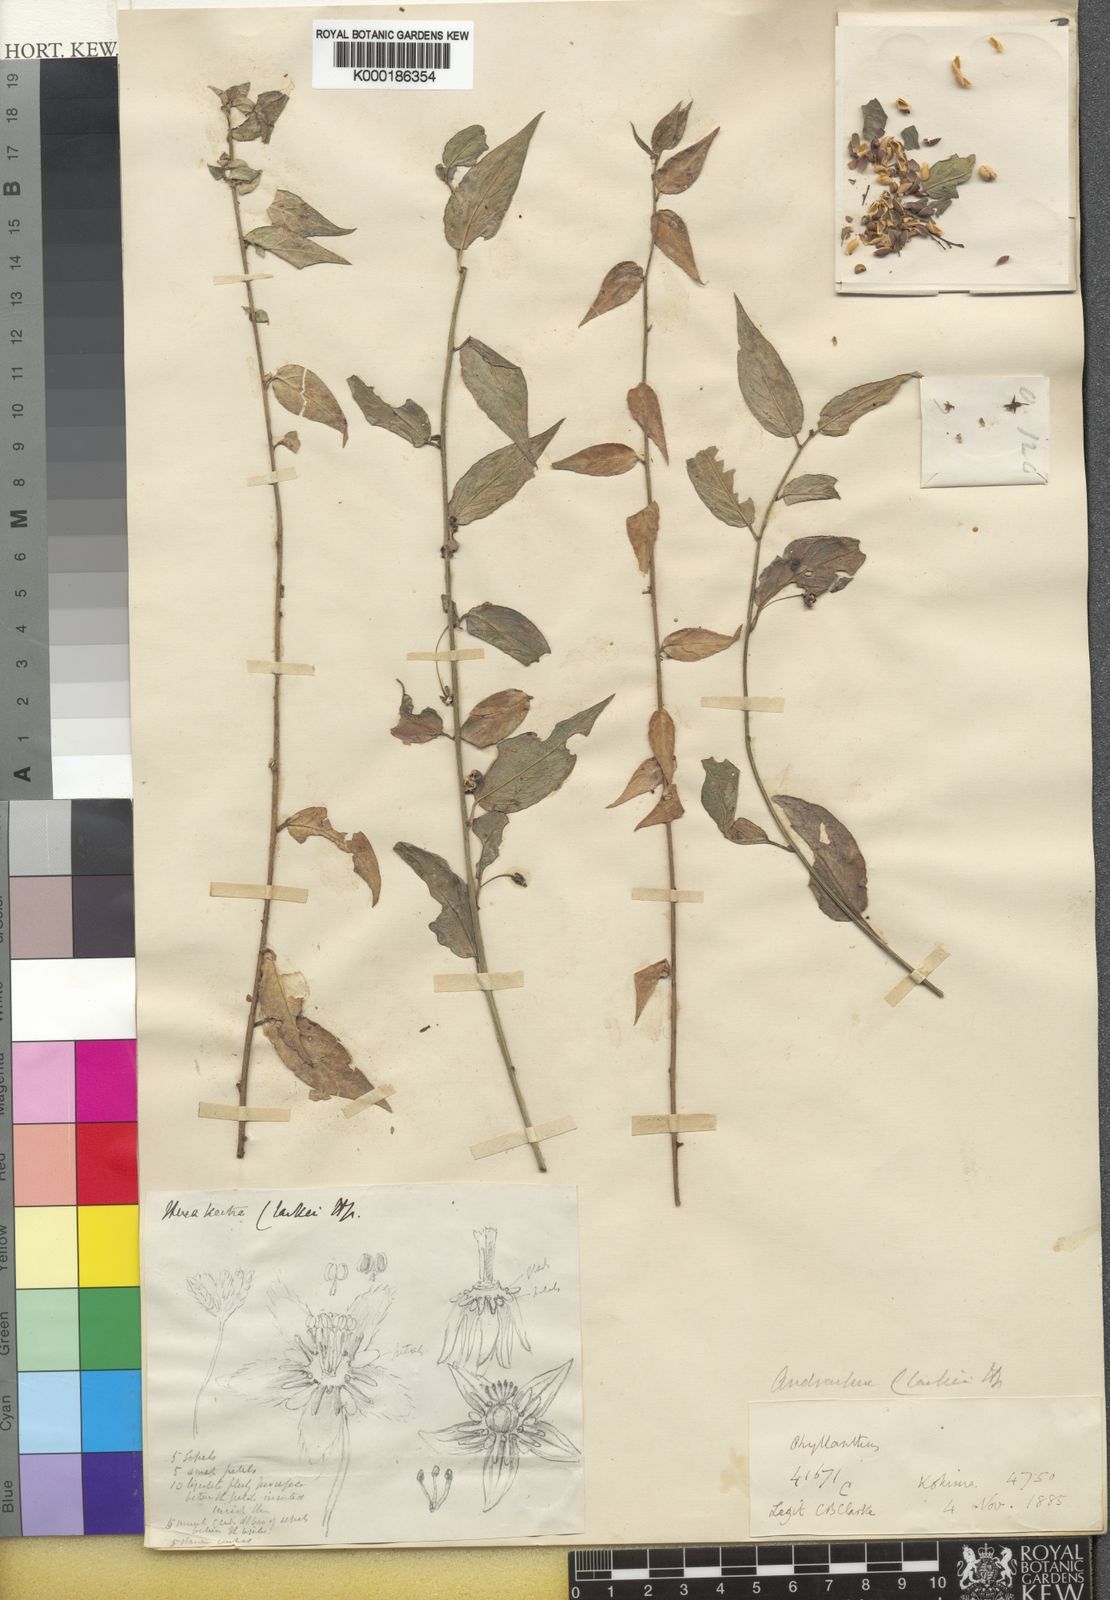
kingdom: Plantae
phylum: Tracheophyta
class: Magnoliopsida
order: Malpighiales
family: Phyllanthaceae
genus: Leptopus
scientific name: Leptopus clarkei
